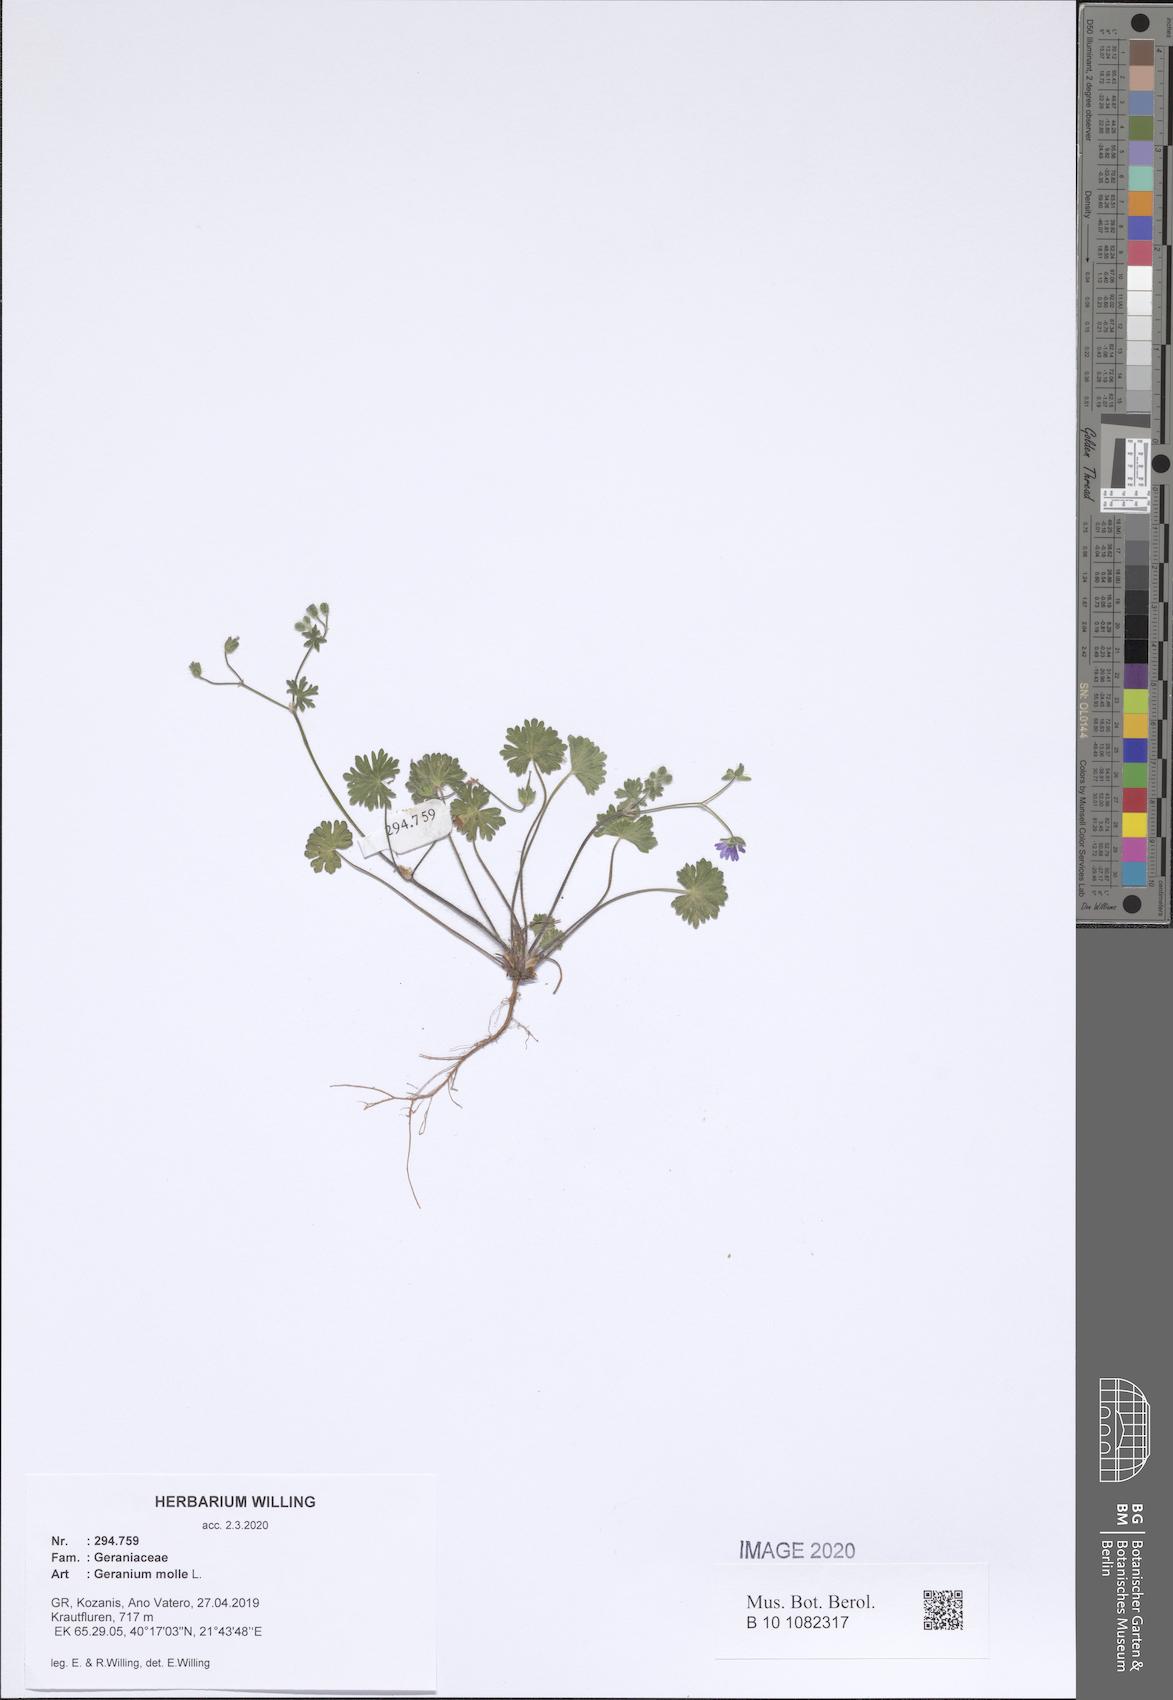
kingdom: Plantae
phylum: Tracheophyta
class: Magnoliopsida
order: Geraniales
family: Geraniaceae
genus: Geranium
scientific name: Geranium molle
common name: Dove's-foot crane's-bill
